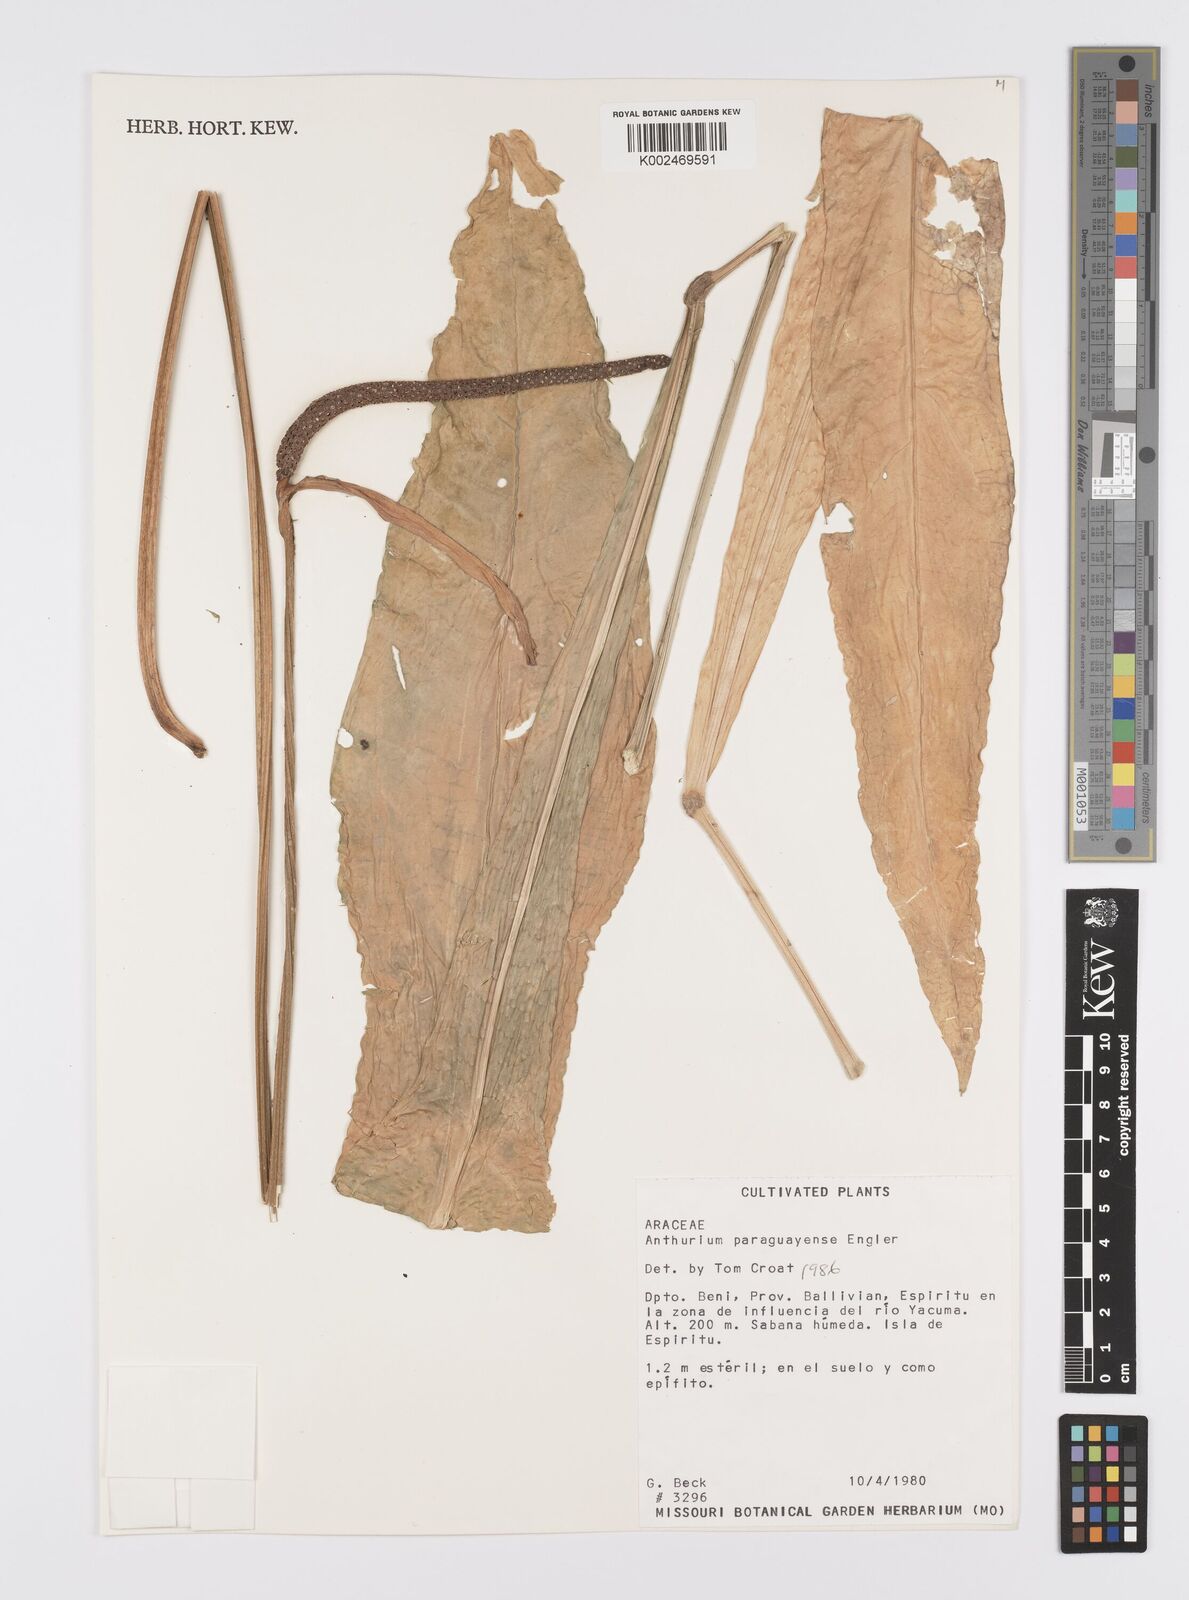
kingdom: Plantae
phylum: Tracheophyta
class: Liliopsida
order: Alismatales
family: Araceae
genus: Anthurium
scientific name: Anthurium paraguayense
